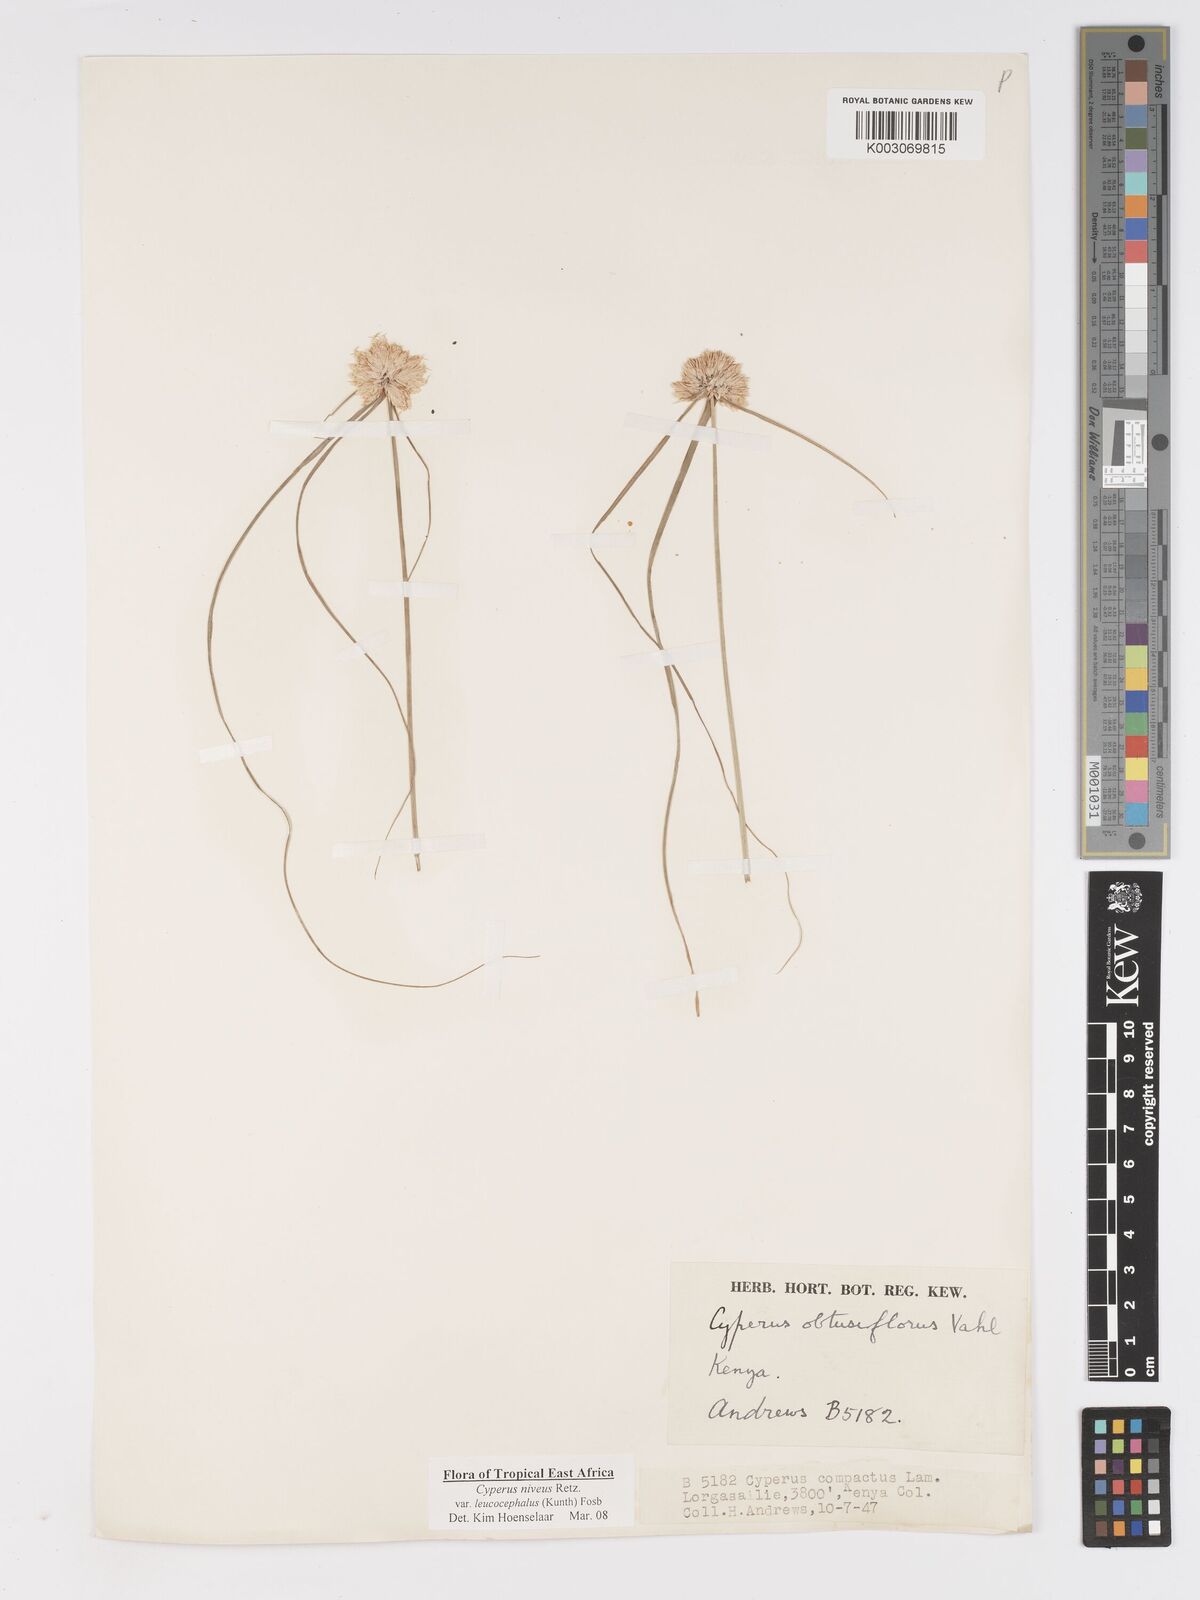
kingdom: Plantae
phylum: Tracheophyta
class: Liliopsida
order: Poales
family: Cyperaceae
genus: Cyperus
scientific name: Cyperus niveus
